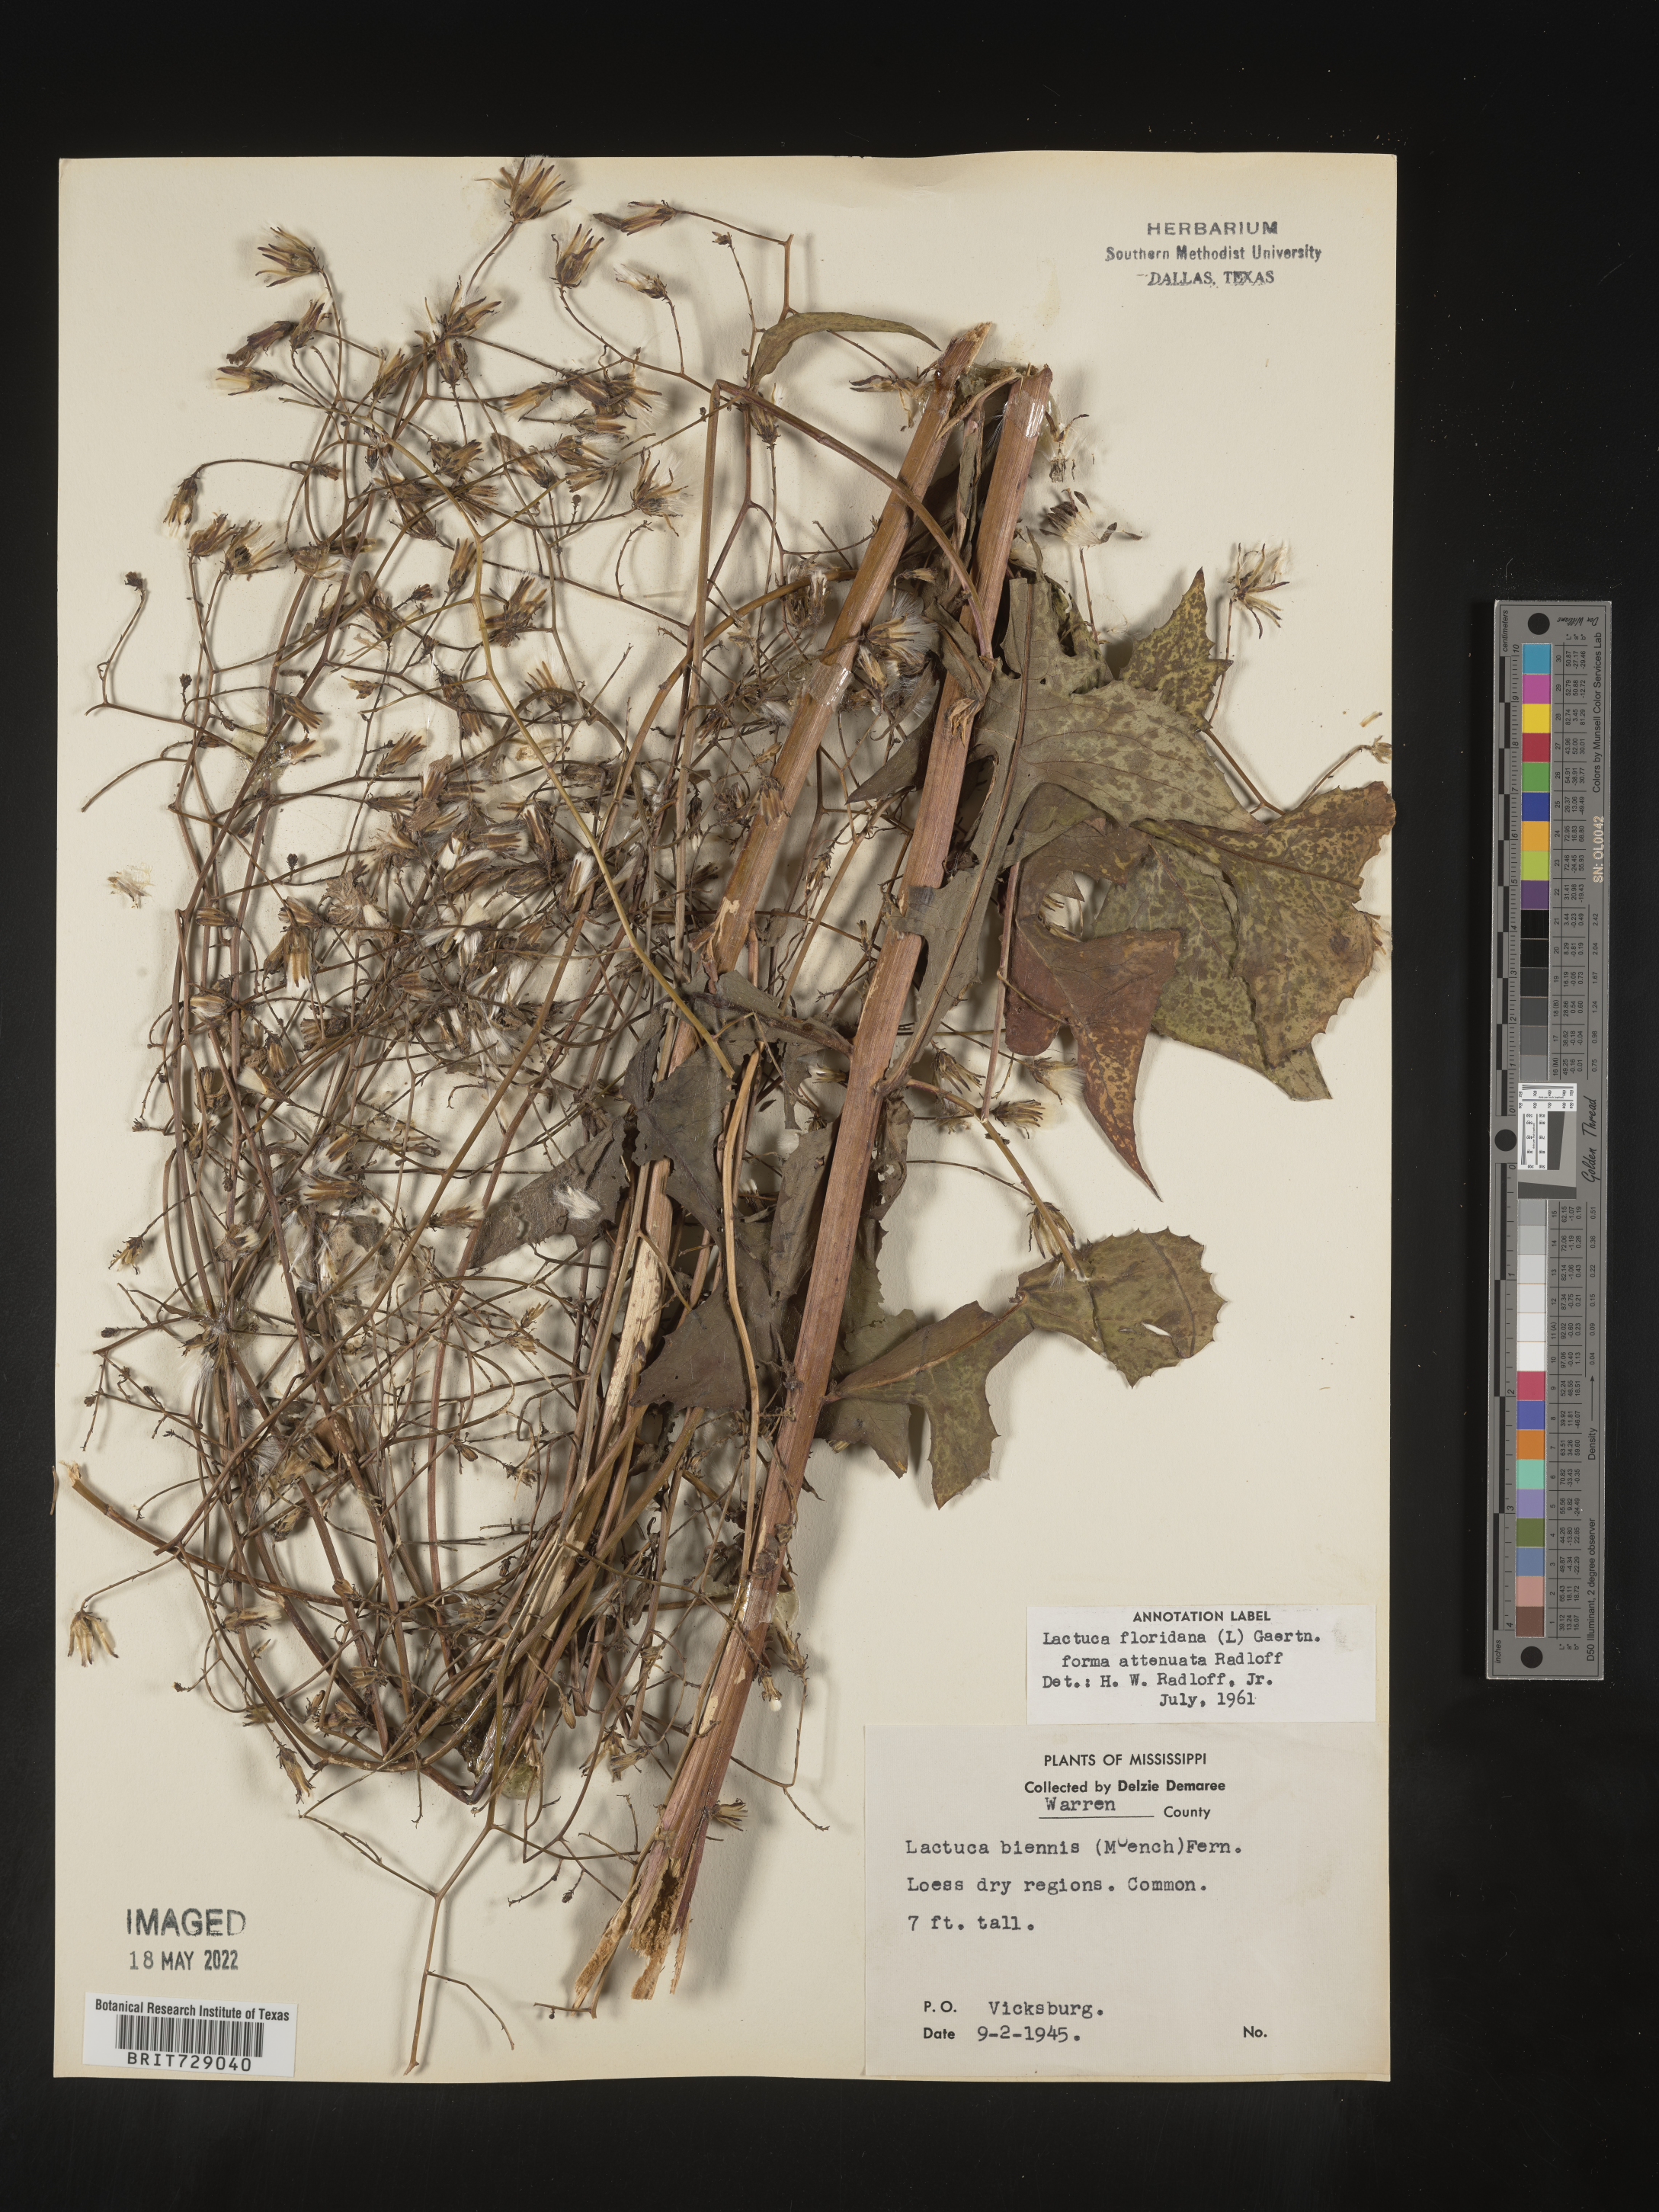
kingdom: Plantae
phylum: Tracheophyta
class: Magnoliopsida
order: Asterales
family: Asteraceae
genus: Lactuca
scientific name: Lactuca floridana
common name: Woodland lettuce
